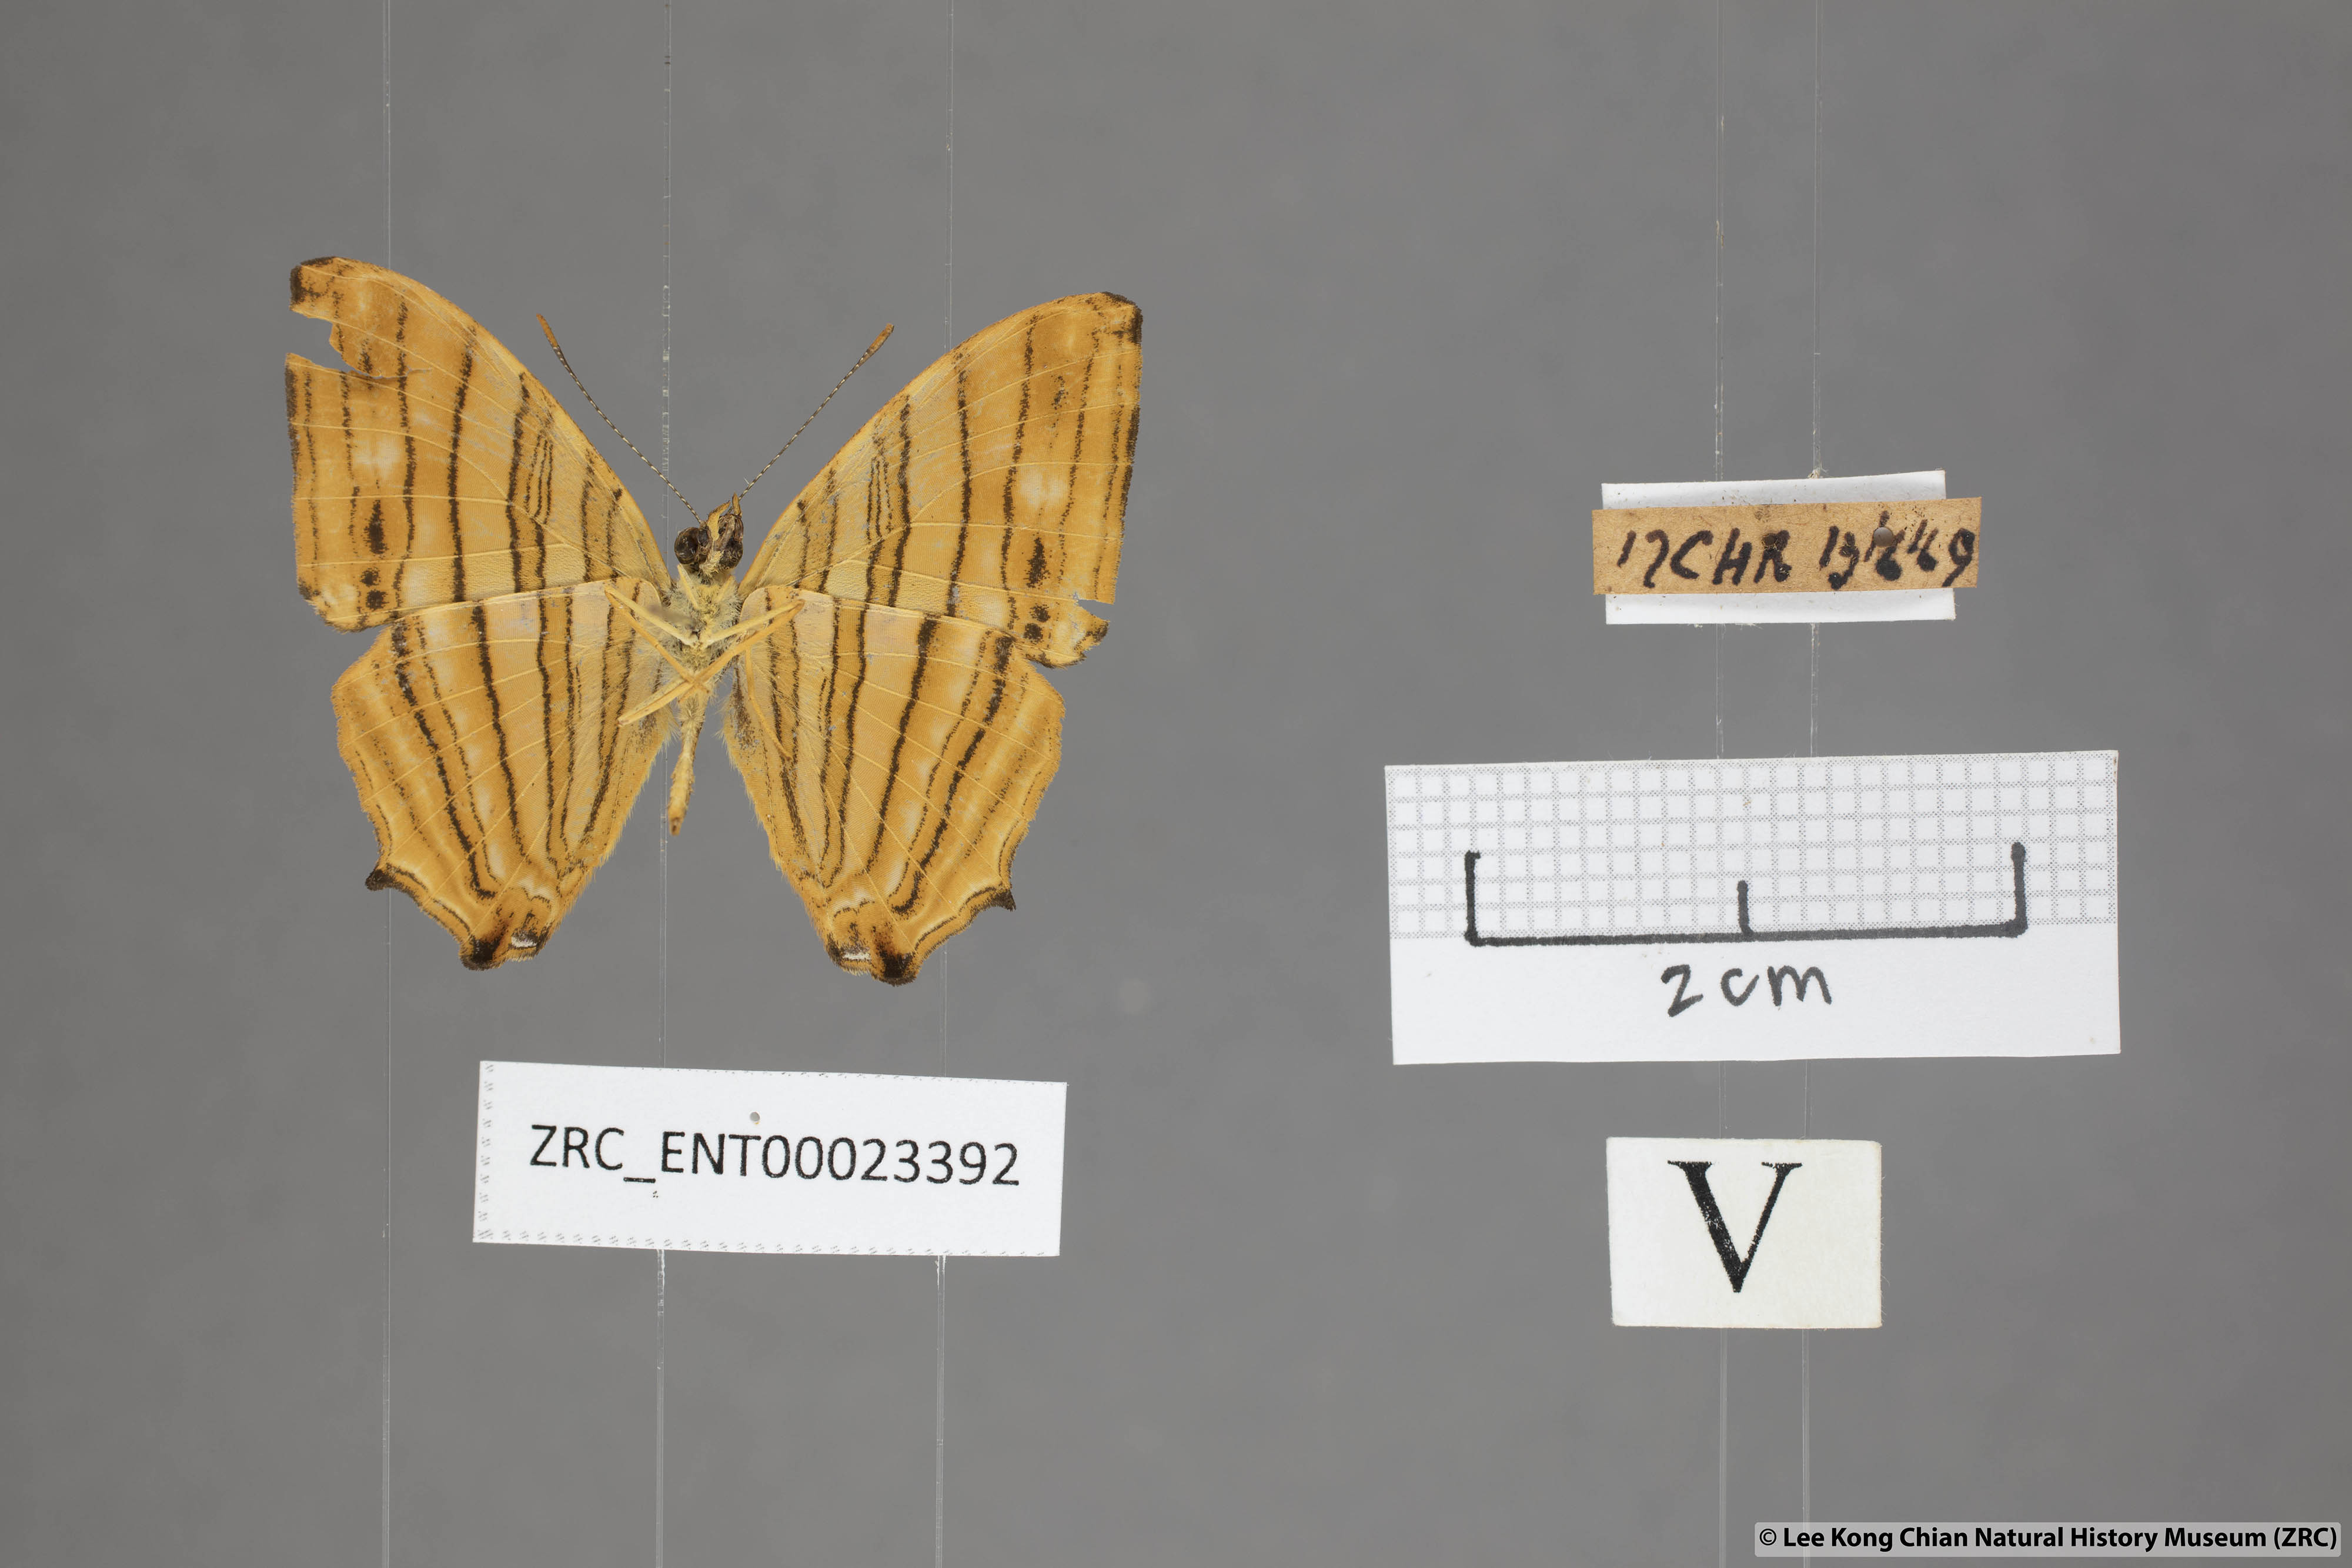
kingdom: Animalia
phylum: Arthropoda
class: Insecta
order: Lepidoptera
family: Nymphalidae
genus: Chersonesia
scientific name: Chersonesia risa
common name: Common maplet
